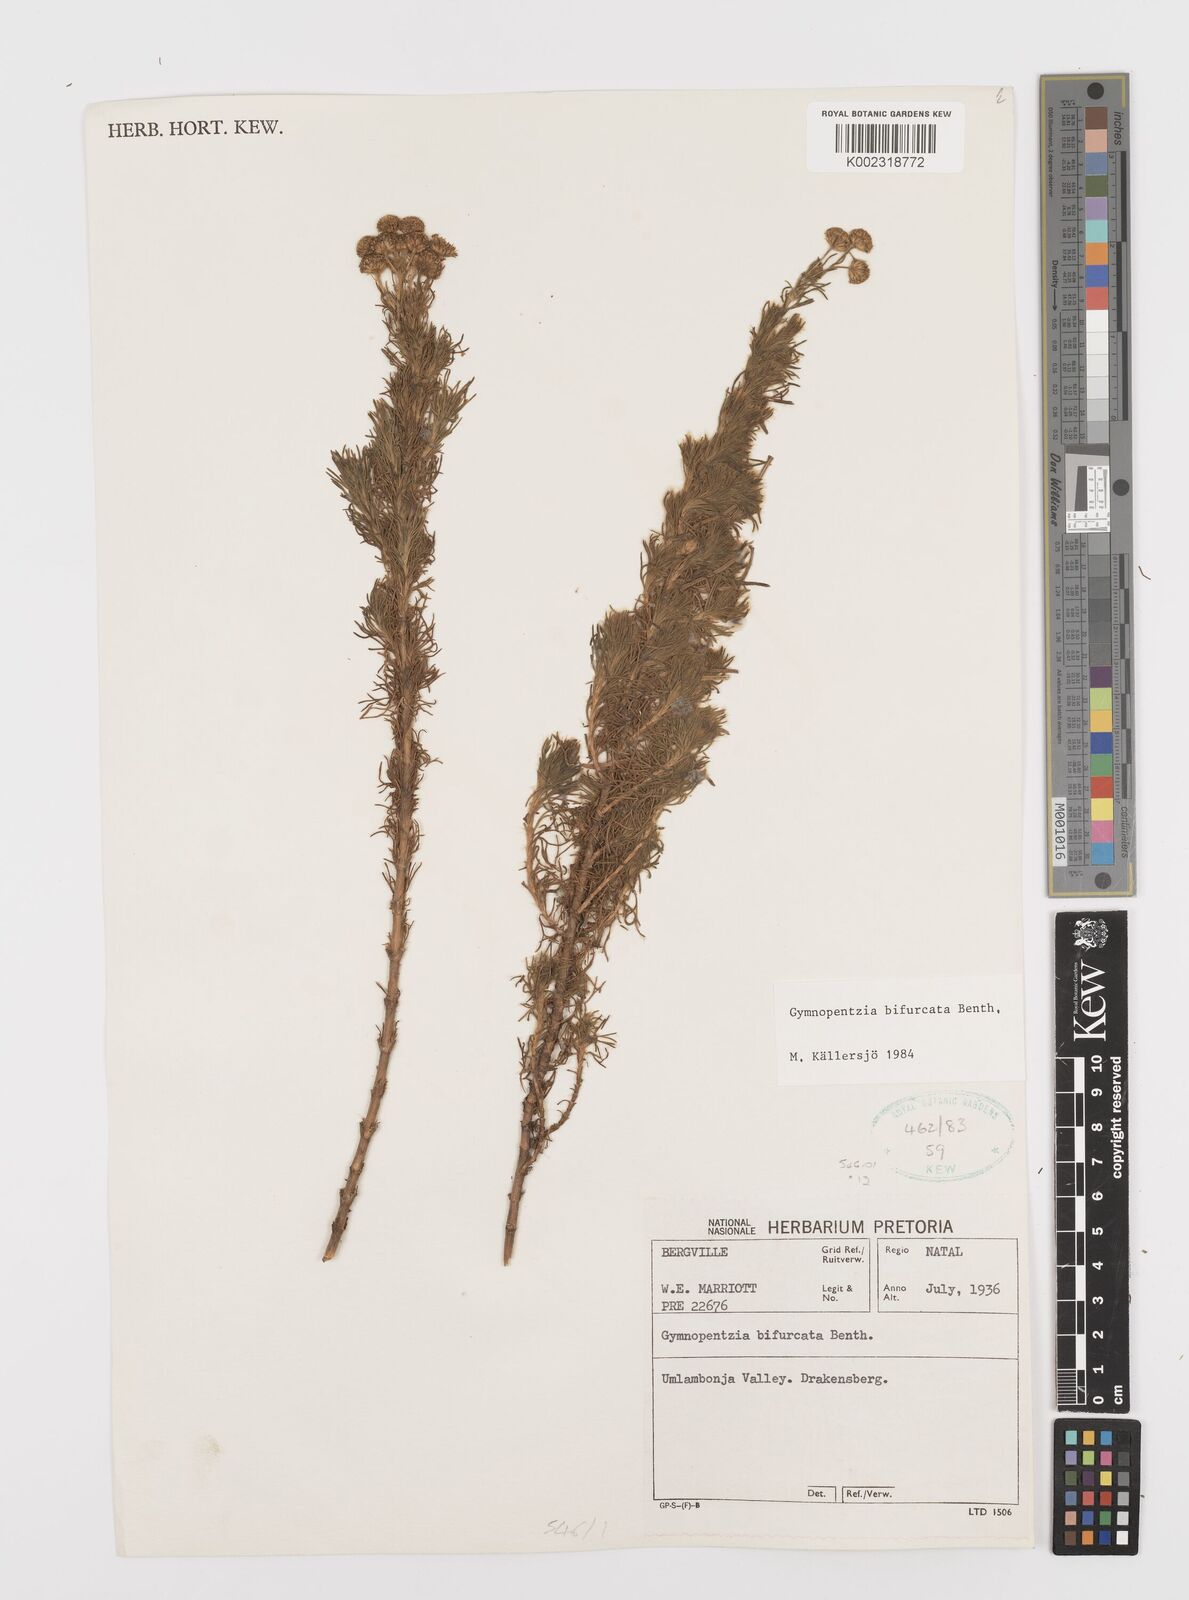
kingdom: Plantae
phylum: Tracheophyta
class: Magnoliopsida
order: Asterales
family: Asteraceae
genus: Gymnopentzia
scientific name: Gymnopentzia bifurcata
